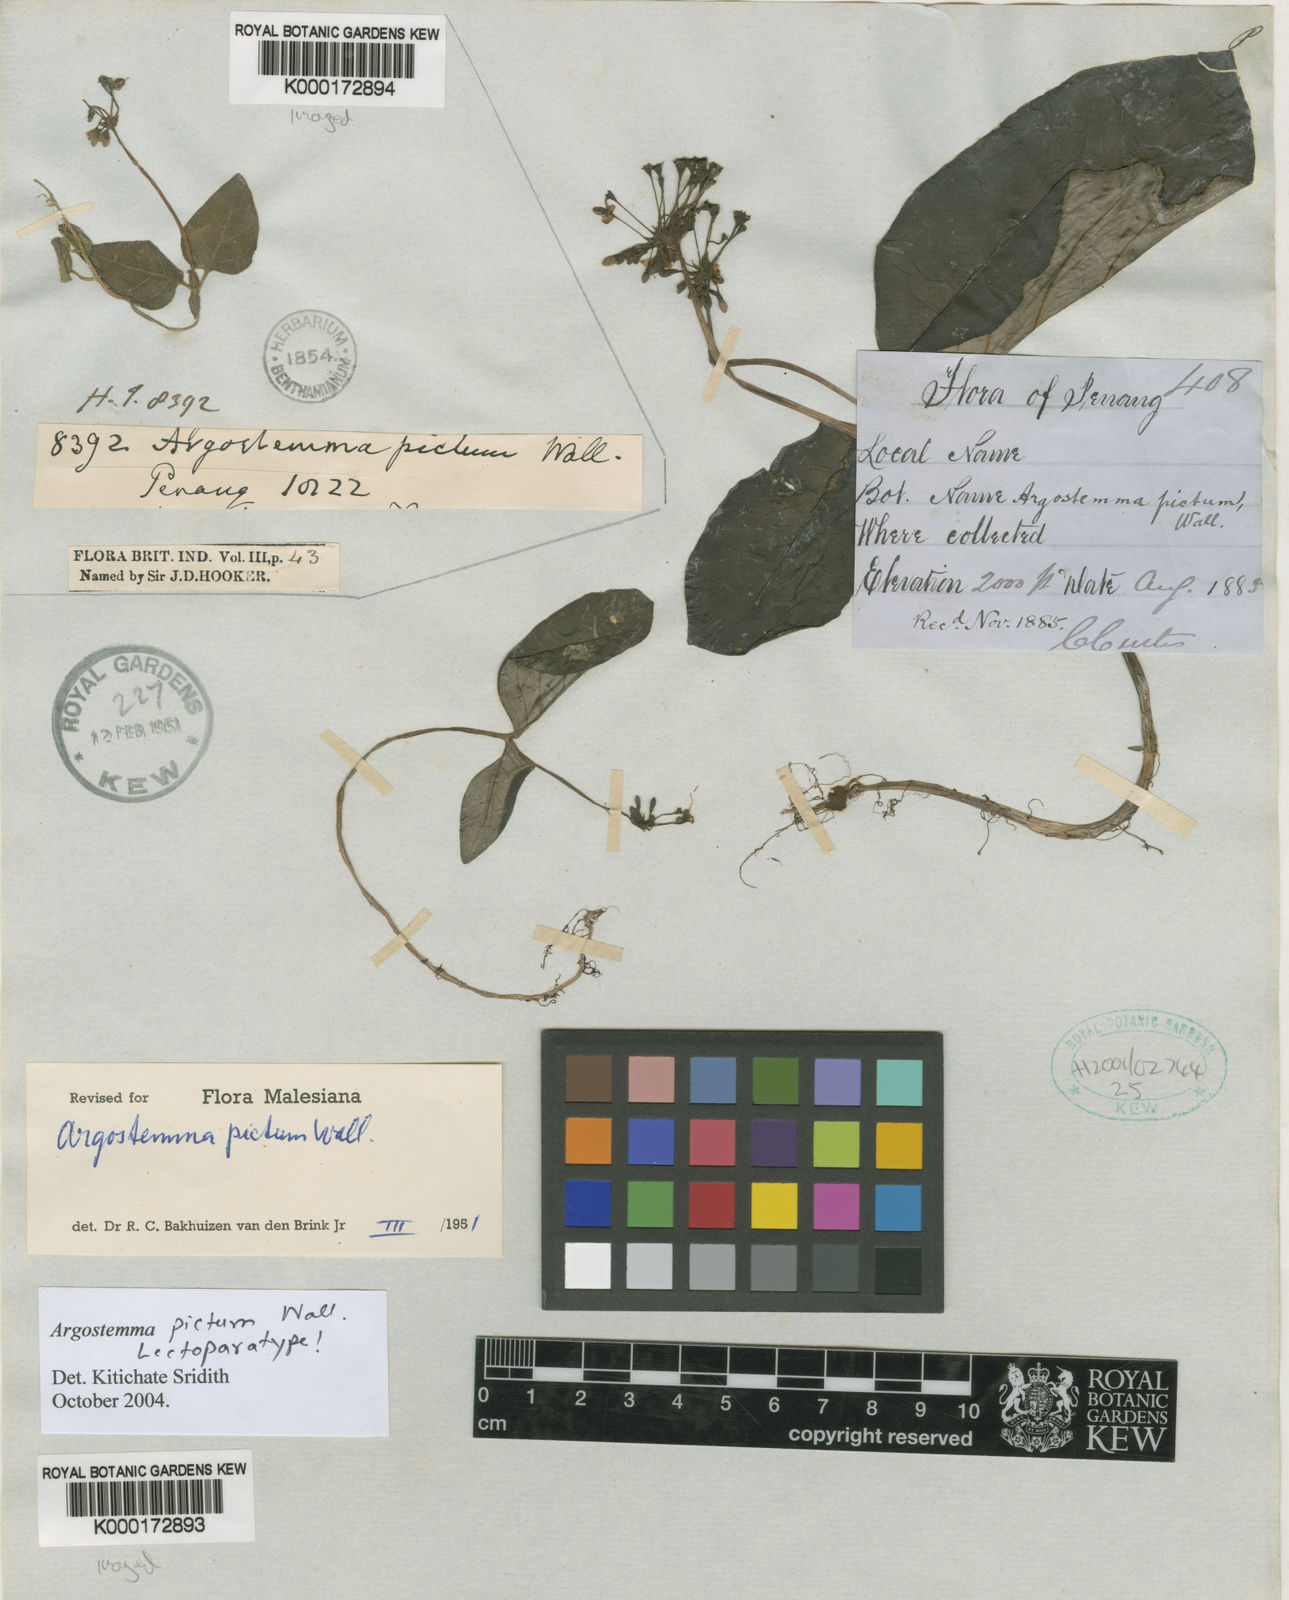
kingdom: Plantae
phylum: Tracheophyta
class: Magnoliopsida
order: Gentianales
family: Rubiaceae
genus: Argostemma
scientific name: Argostemma pictum
